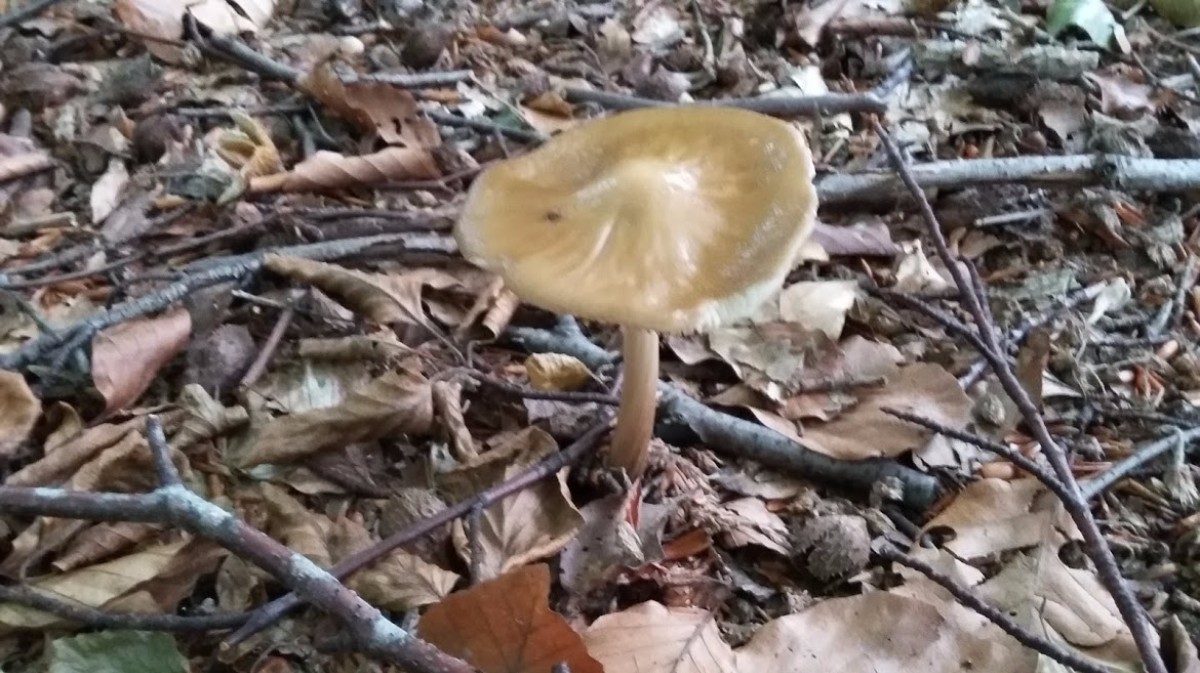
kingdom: Fungi
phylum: Basidiomycota
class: Agaricomycetes
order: Agaricales
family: Physalacriaceae
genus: Hymenopellis
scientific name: Hymenopellis radicata
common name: almindelig pælerodshat
